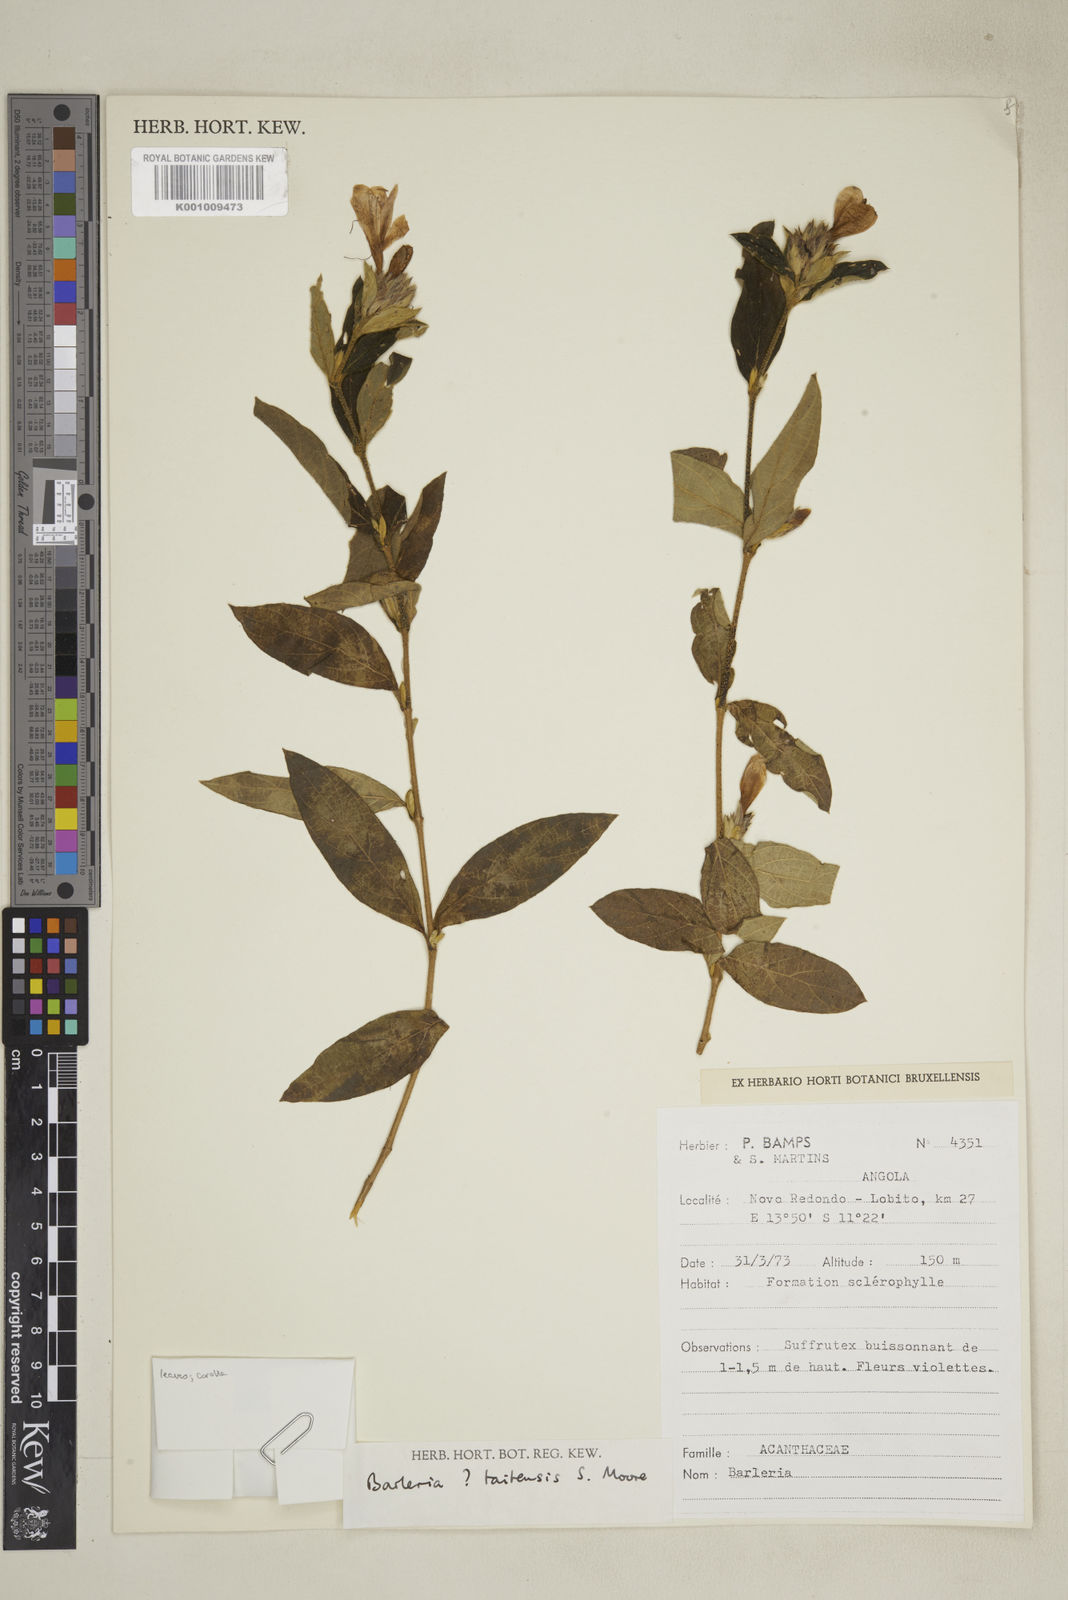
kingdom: Plantae
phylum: Tracheophyta
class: Magnoliopsida
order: Lamiales
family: Acanthaceae
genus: Barleria
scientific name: Barleria taitensis
